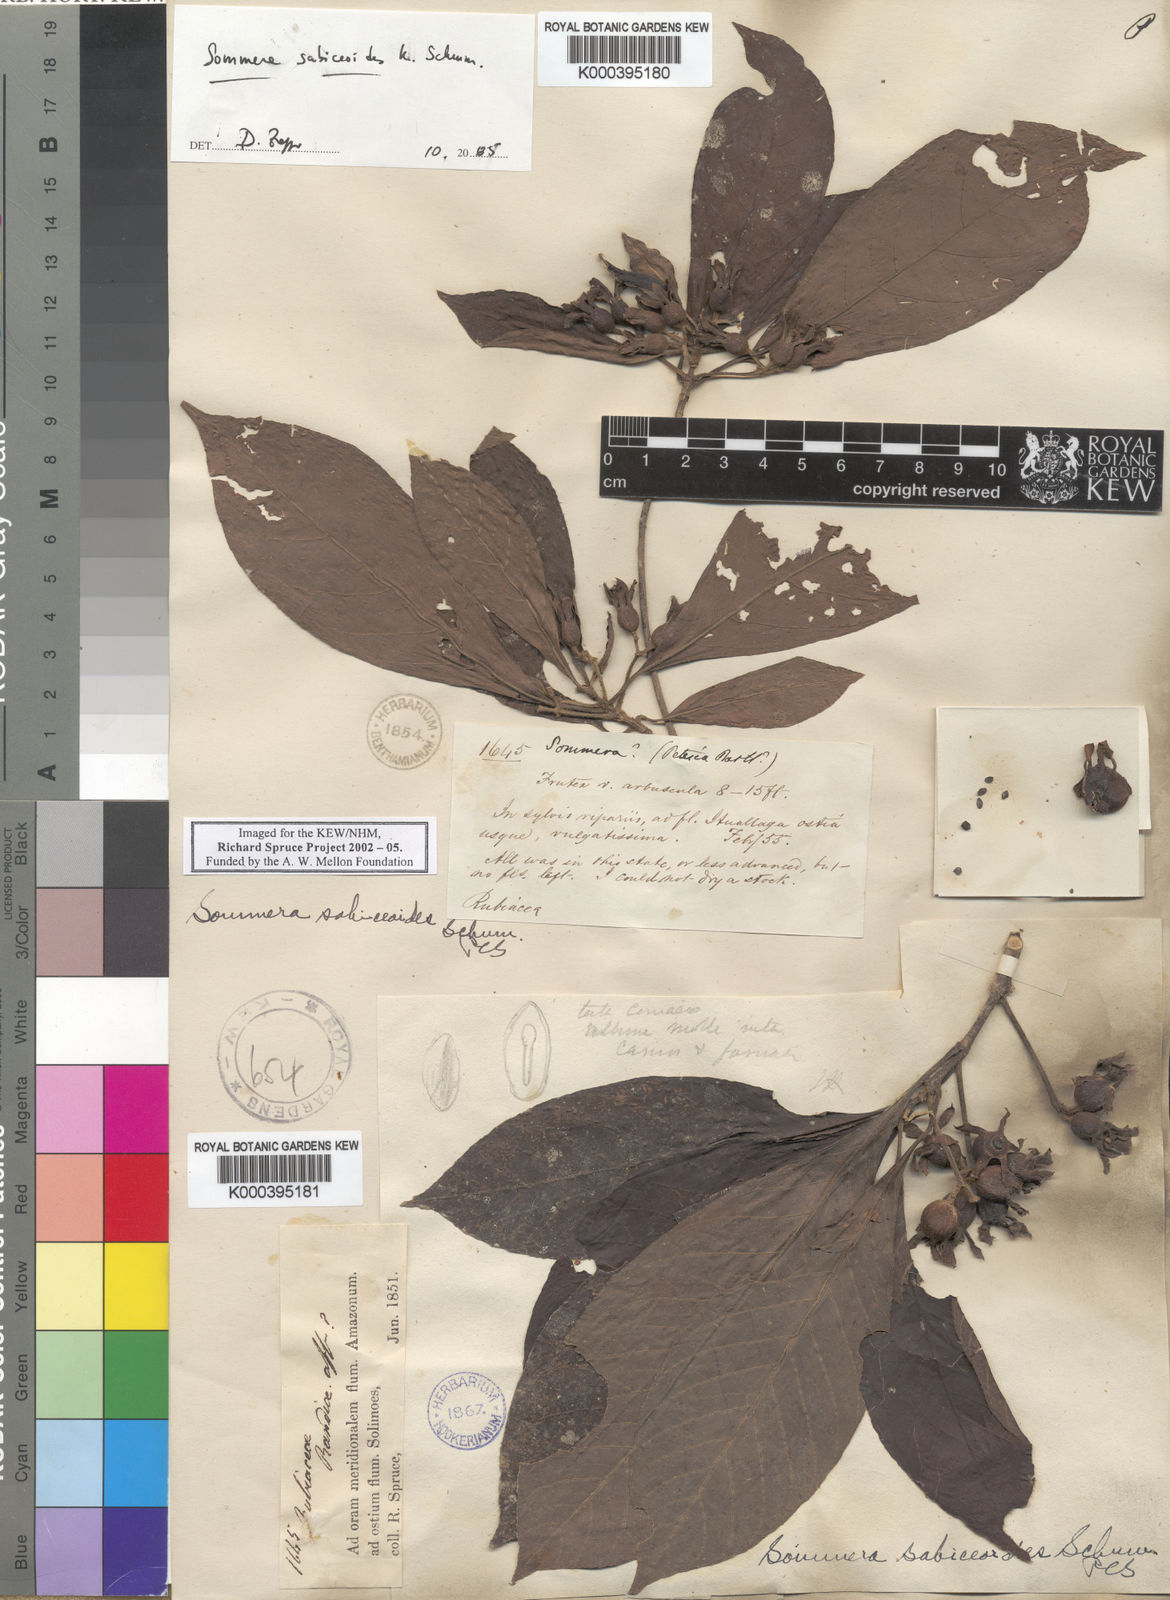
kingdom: Plantae
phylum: Tracheophyta
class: Magnoliopsida
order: Gentianales
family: Rubiaceae
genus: Sommera
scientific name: Sommera sabiceoides
